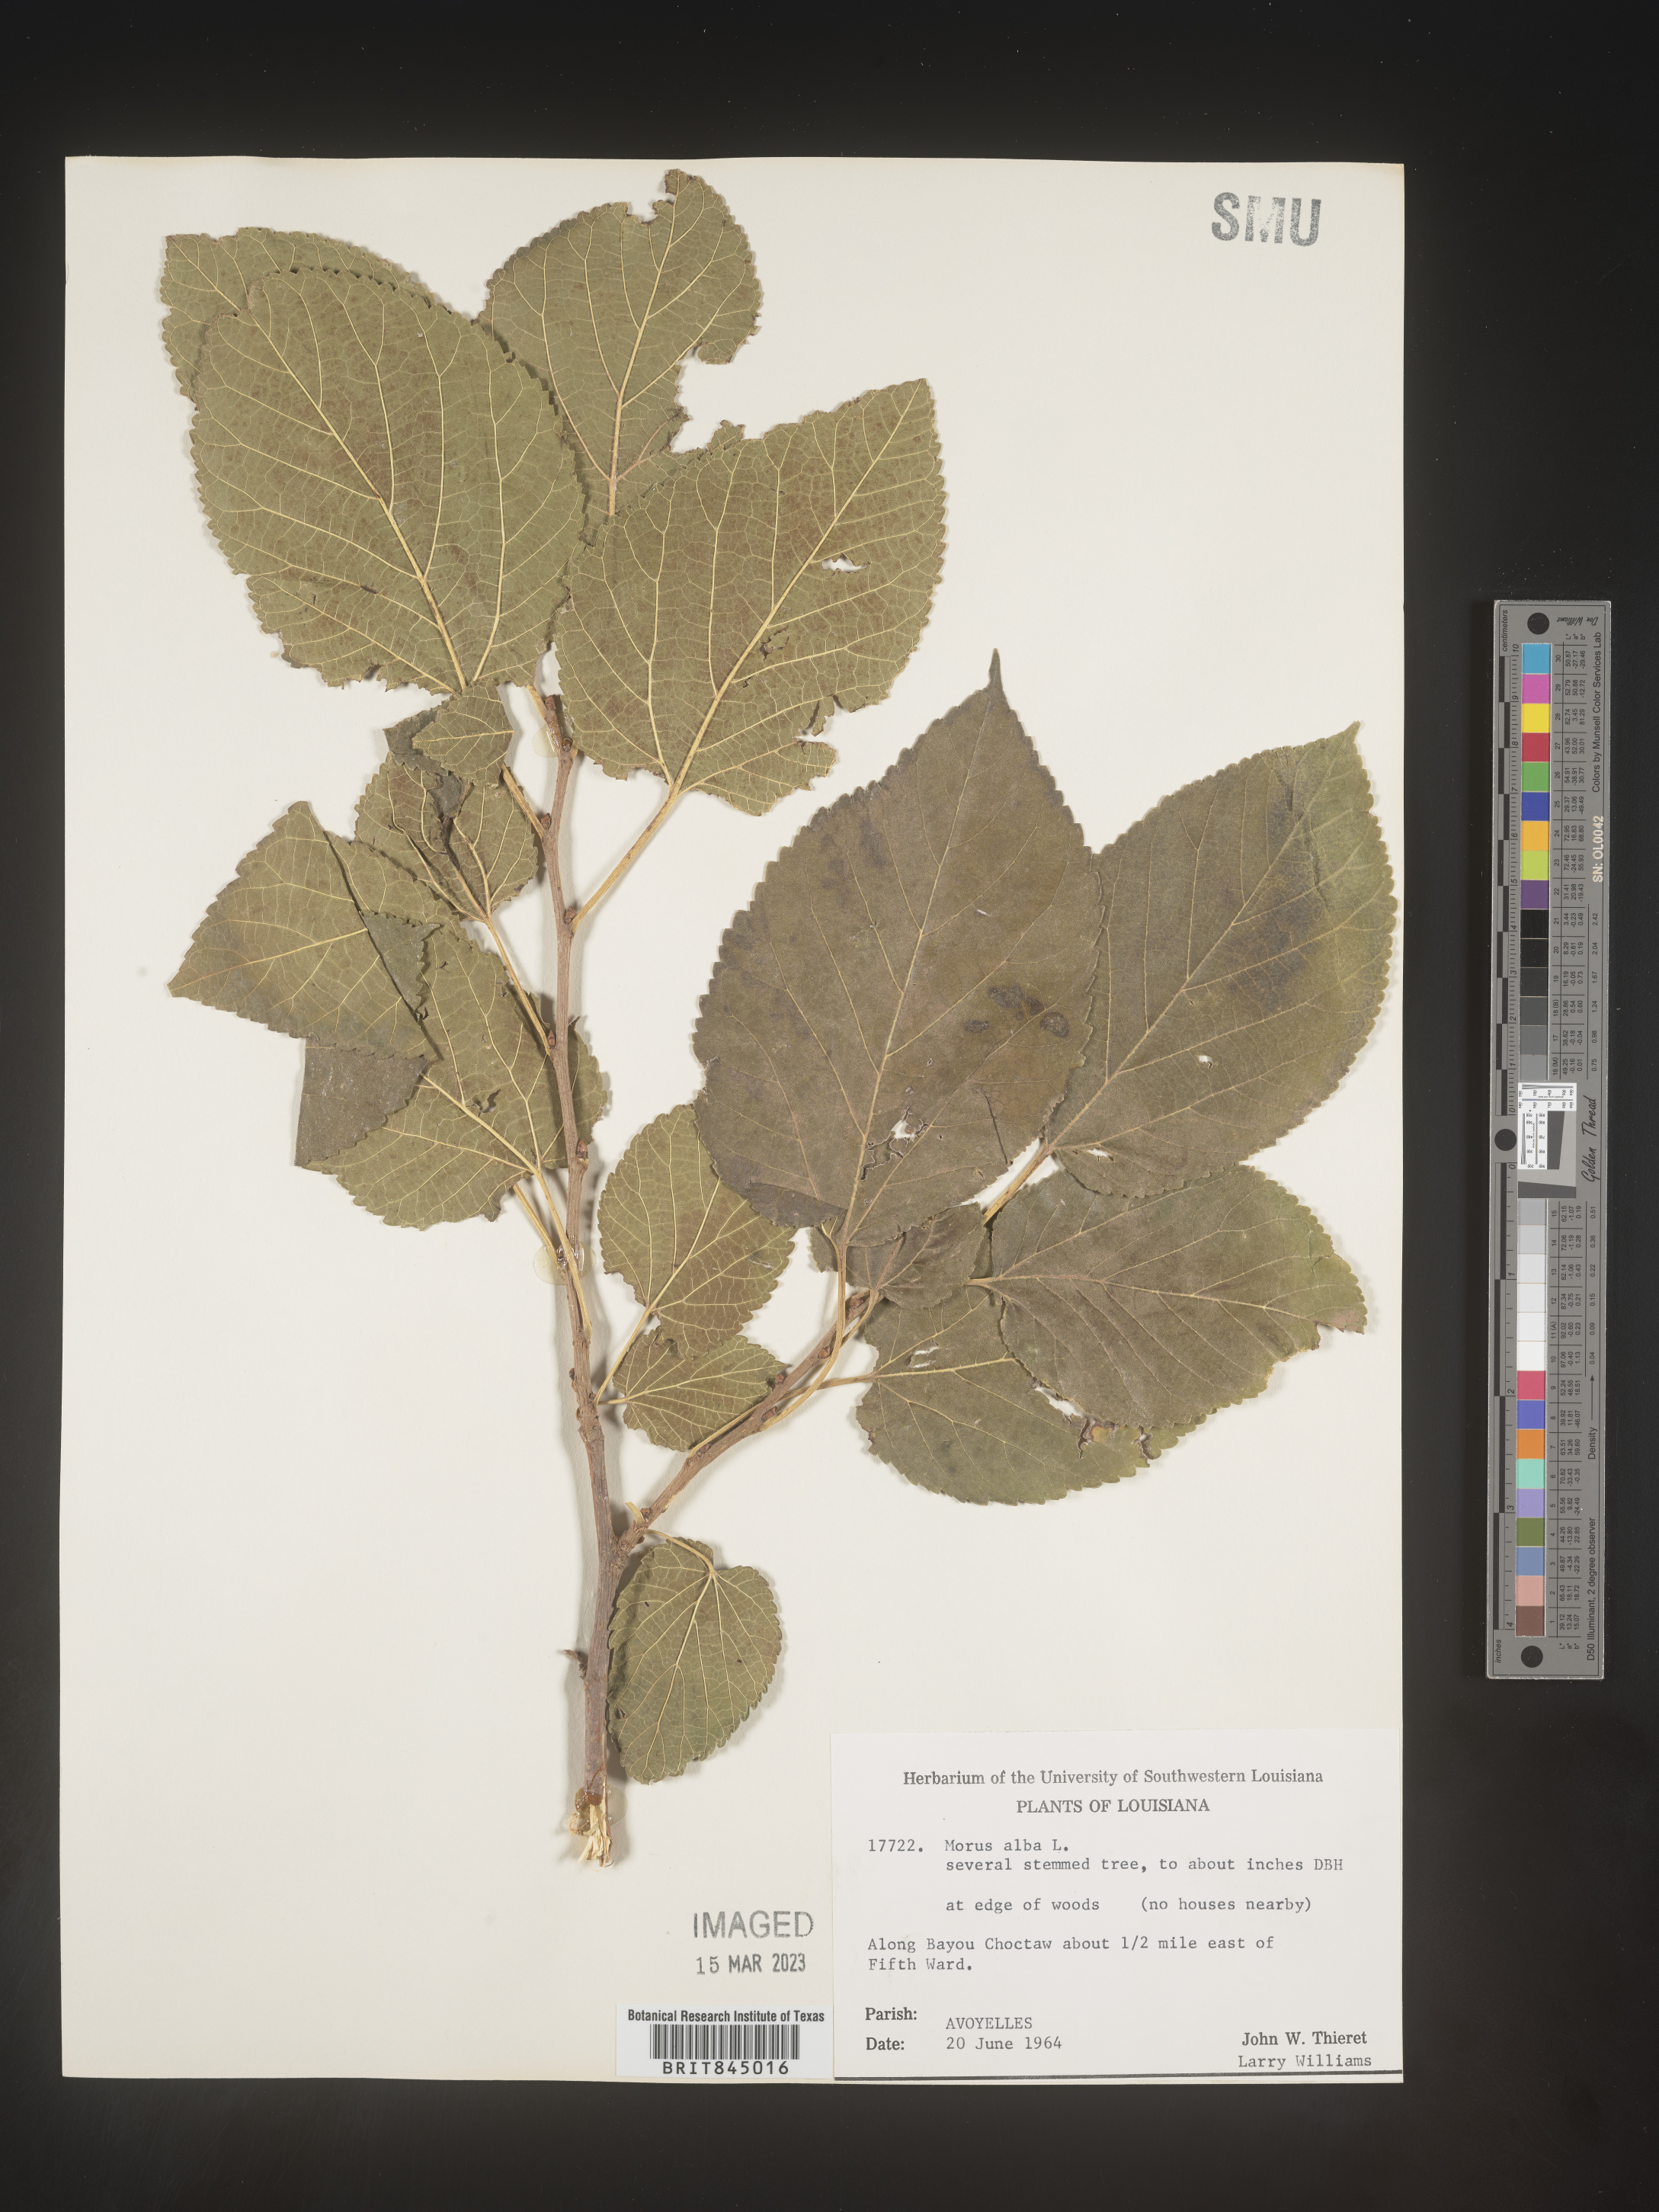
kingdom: Plantae
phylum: Tracheophyta
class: Magnoliopsida
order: Rosales
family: Moraceae
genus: Morus
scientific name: Morus alba
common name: White mulberry
